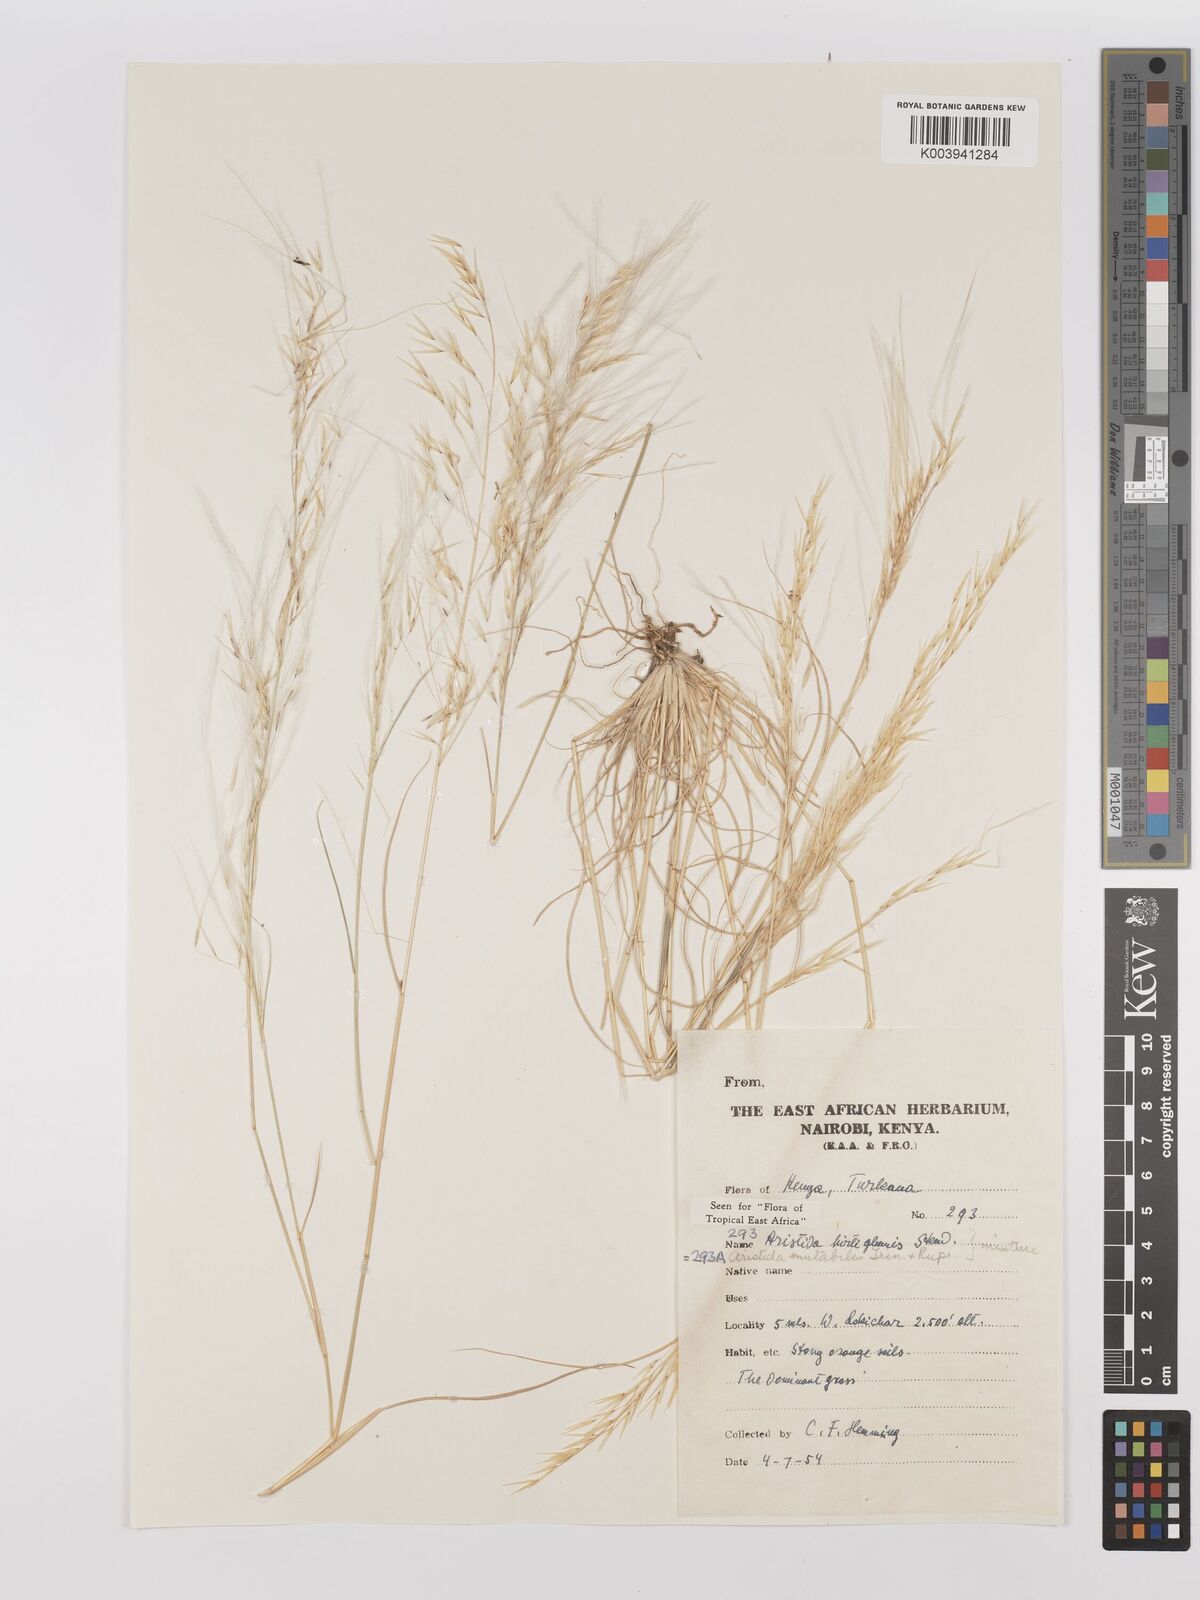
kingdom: Plantae
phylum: Tracheophyta
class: Liliopsida
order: Poales
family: Poaceae
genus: Stipagrostis
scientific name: Stipagrostis hirtigluma
